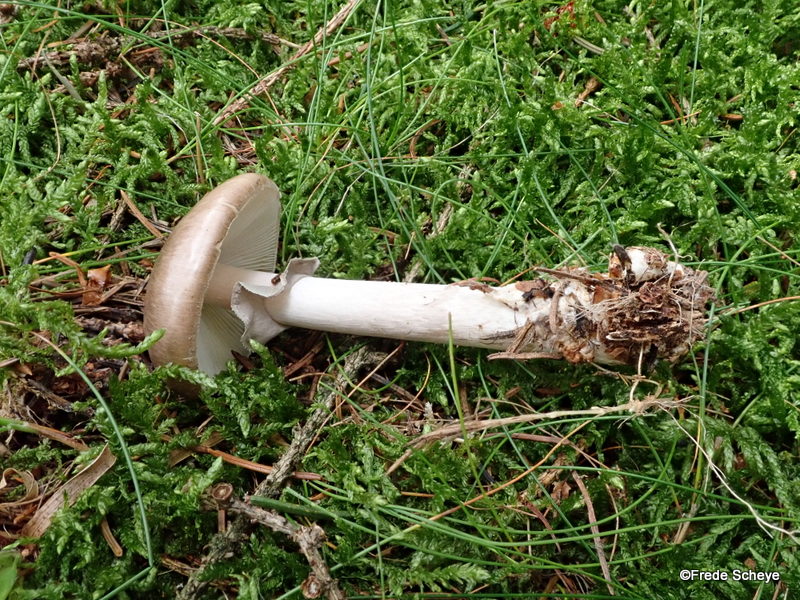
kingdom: Fungi
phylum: Basidiomycota
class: Agaricomycetes
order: Agaricales
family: Amanitaceae
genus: Amanita
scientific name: Amanita porphyria
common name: porfyr-fluesvamp
